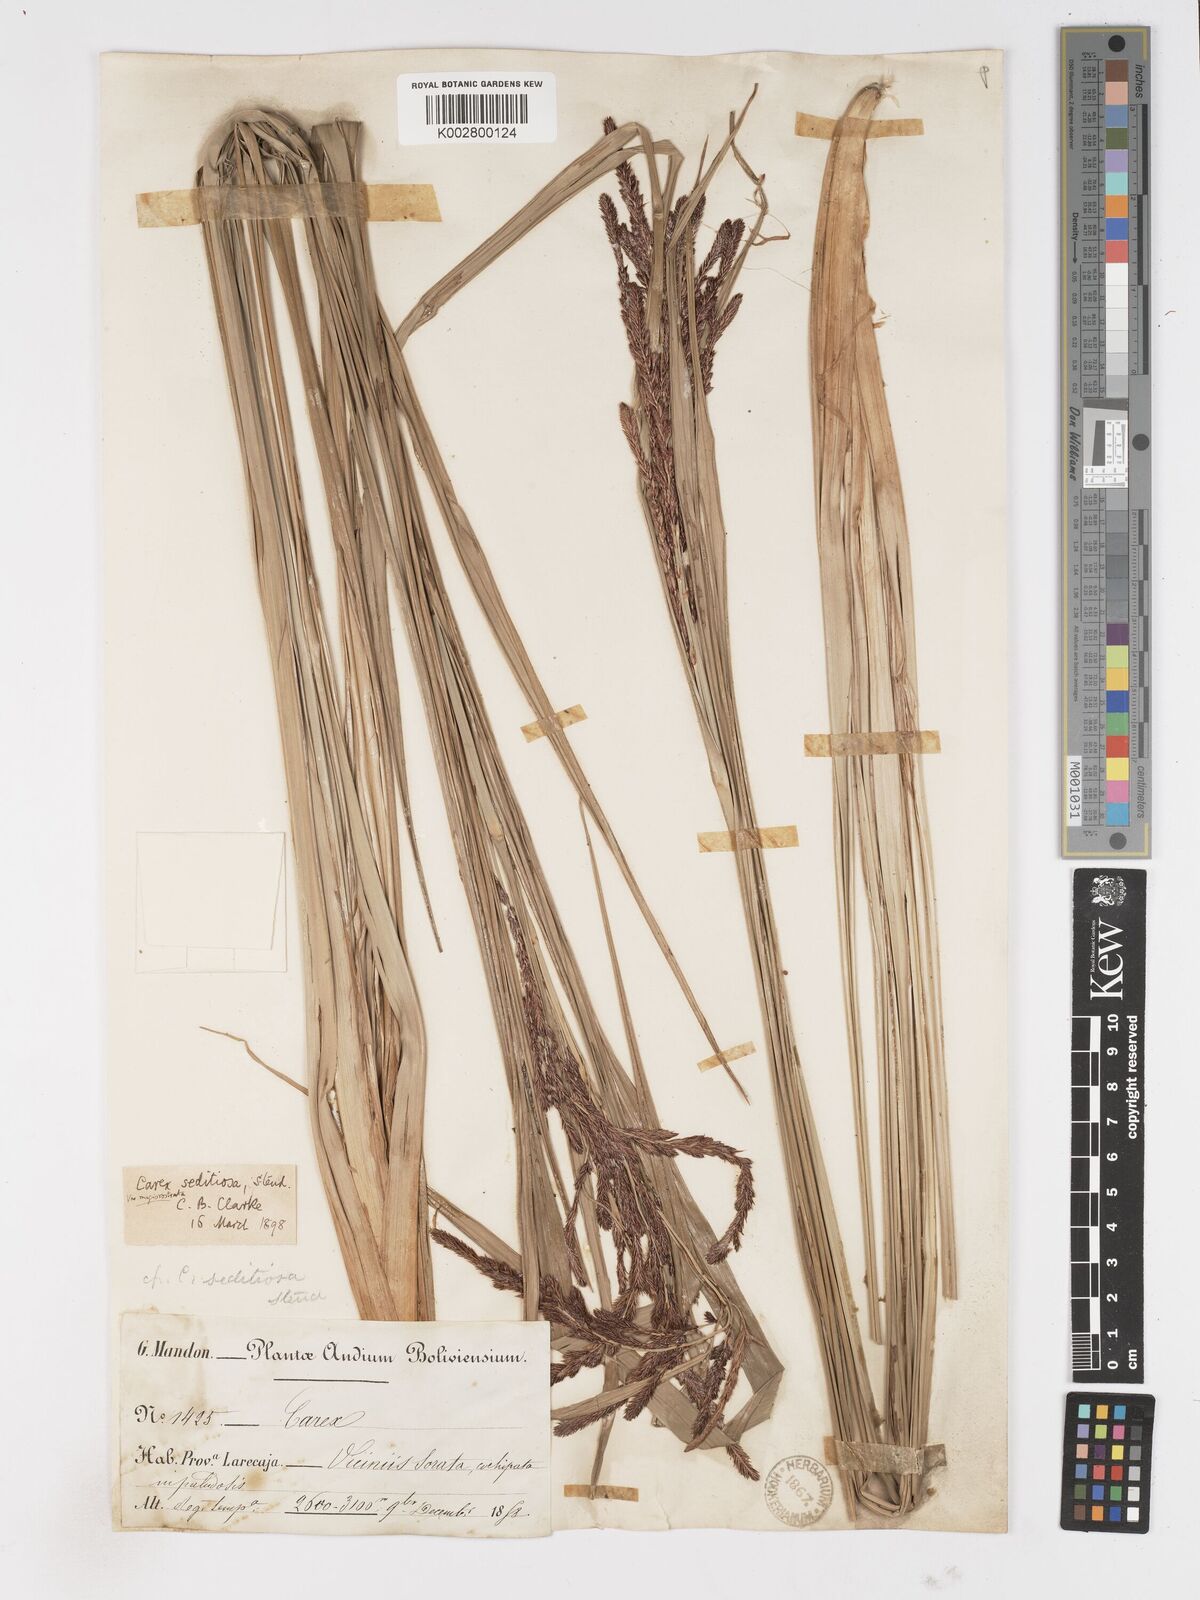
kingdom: Plantae
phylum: Tracheophyta
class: Liliopsida
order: Poales
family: Cyperaceae
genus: Carex
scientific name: Carex fecunda
